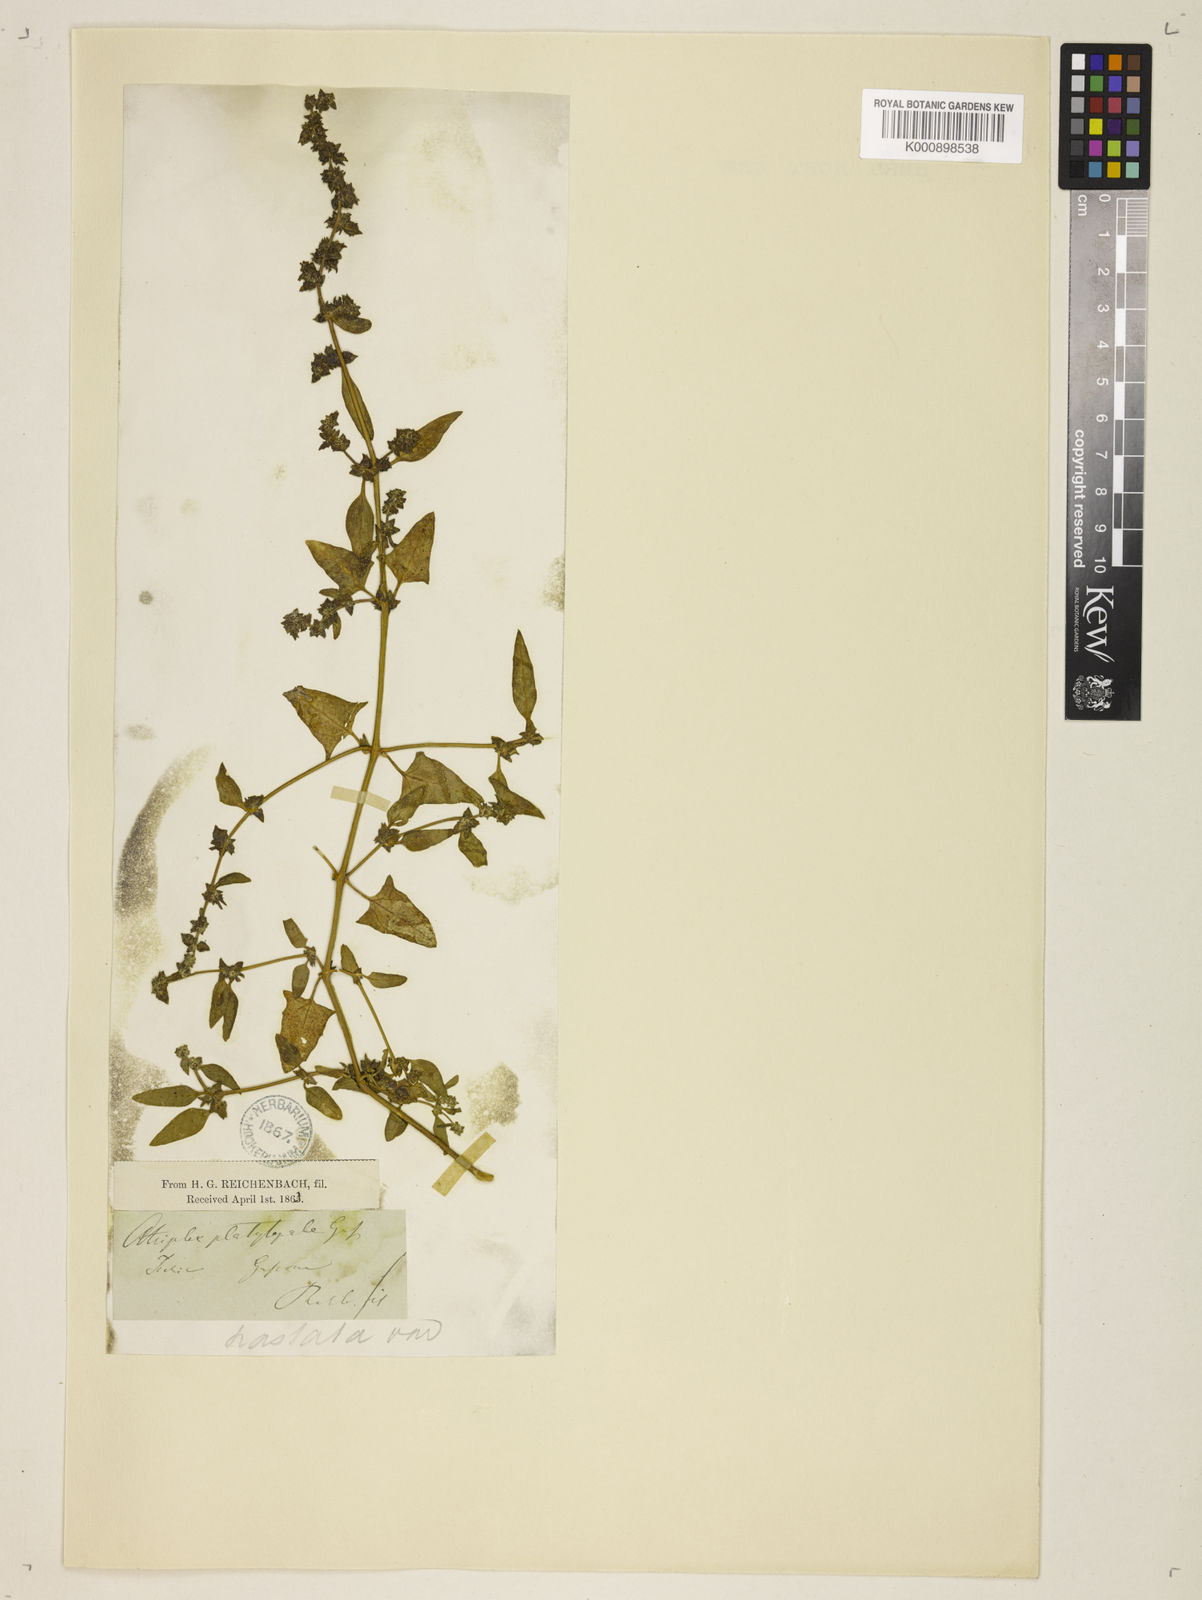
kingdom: Plantae
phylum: Tracheophyta
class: Magnoliopsida
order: Caryophyllales
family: Amaranthaceae
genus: Atriplex
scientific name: Atriplex calotheca
